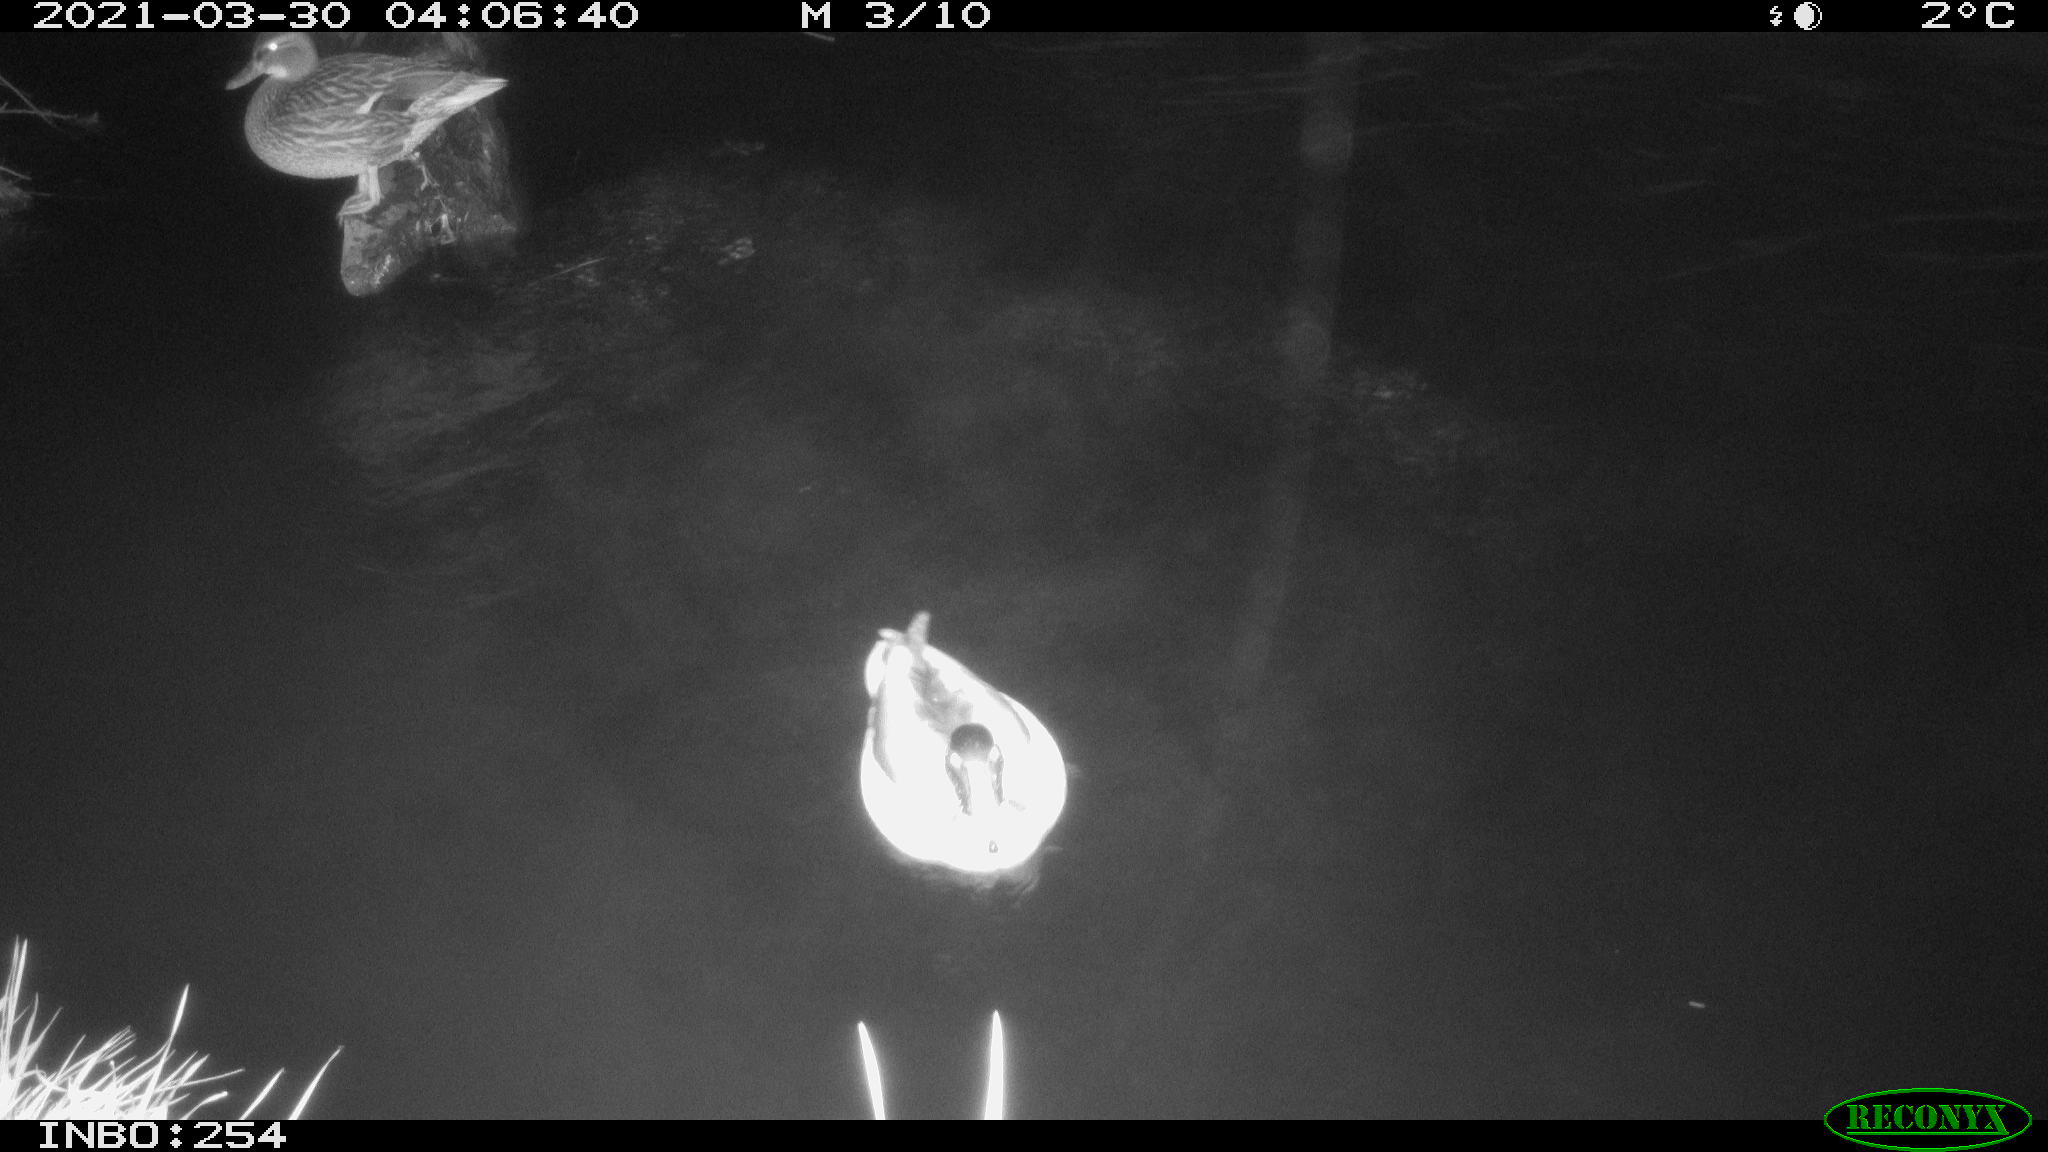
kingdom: Animalia
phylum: Chordata
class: Aves
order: Anseriformes
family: Anatidae
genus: Anas
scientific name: Anas platyrhynchos
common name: Mallard
